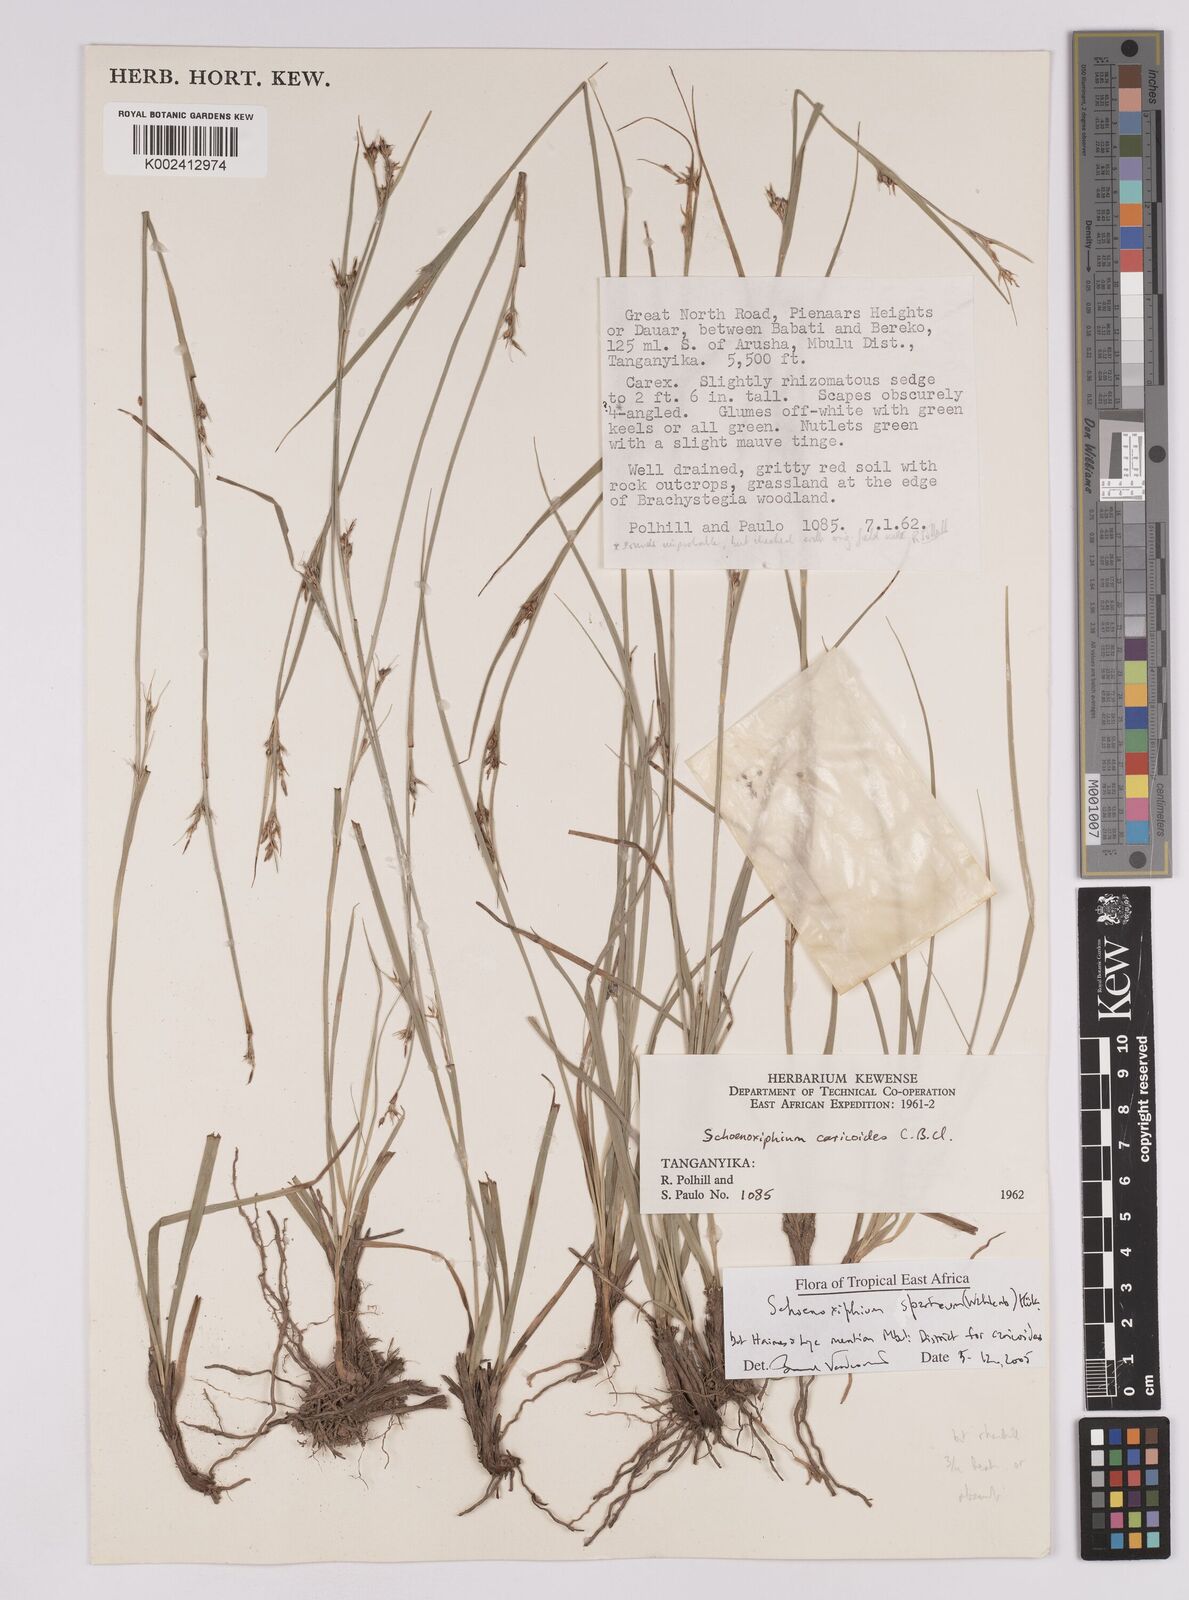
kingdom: Plantae
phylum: Tracheophyta
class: Liliopsida
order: Poales
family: Cyperaceae
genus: Carex
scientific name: Carex spartea
